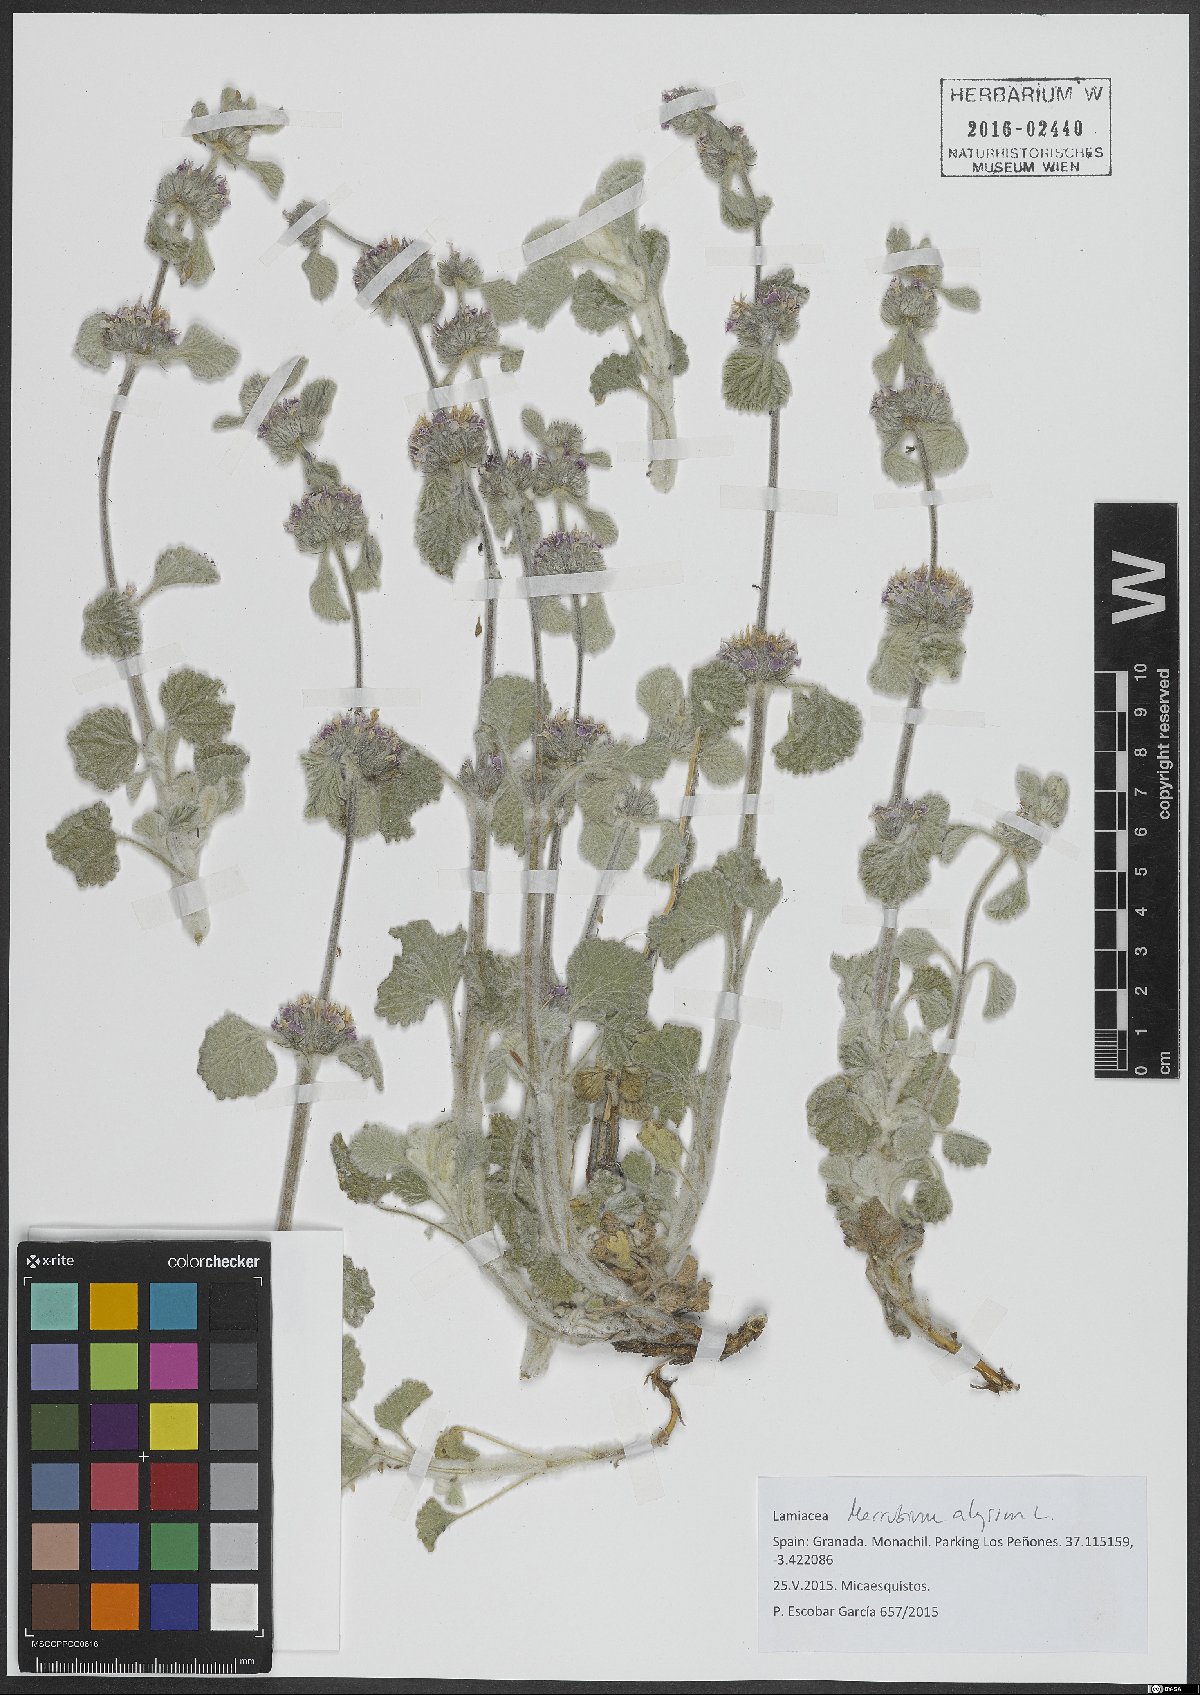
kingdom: Plantae
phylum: Tracheophyta
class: Magnoliopsida
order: Lamiales
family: Lamiaceae
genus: Marrubium
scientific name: Marrubium alysson
